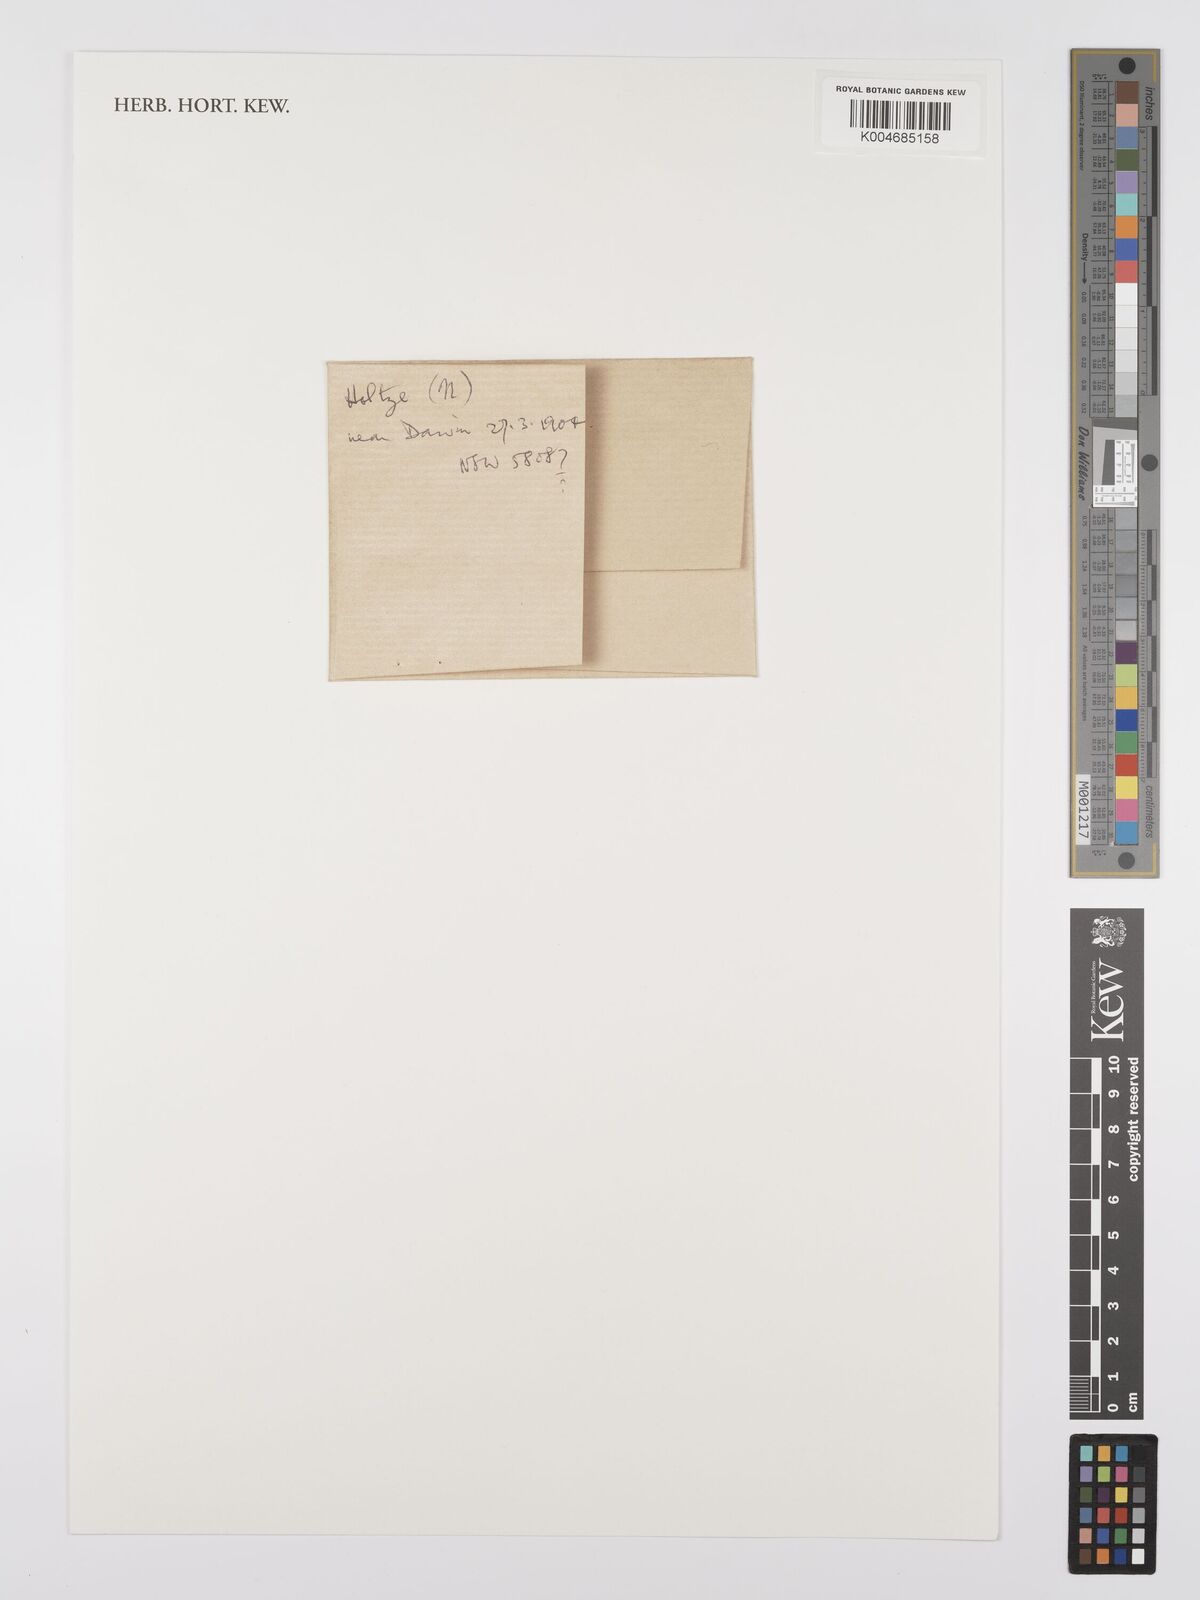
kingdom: Plantae
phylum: Tracheophyta
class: Magnoliopsida
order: Lamiales
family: Lentibulariaceae
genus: Utricularia
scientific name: Utricularia singeriana
